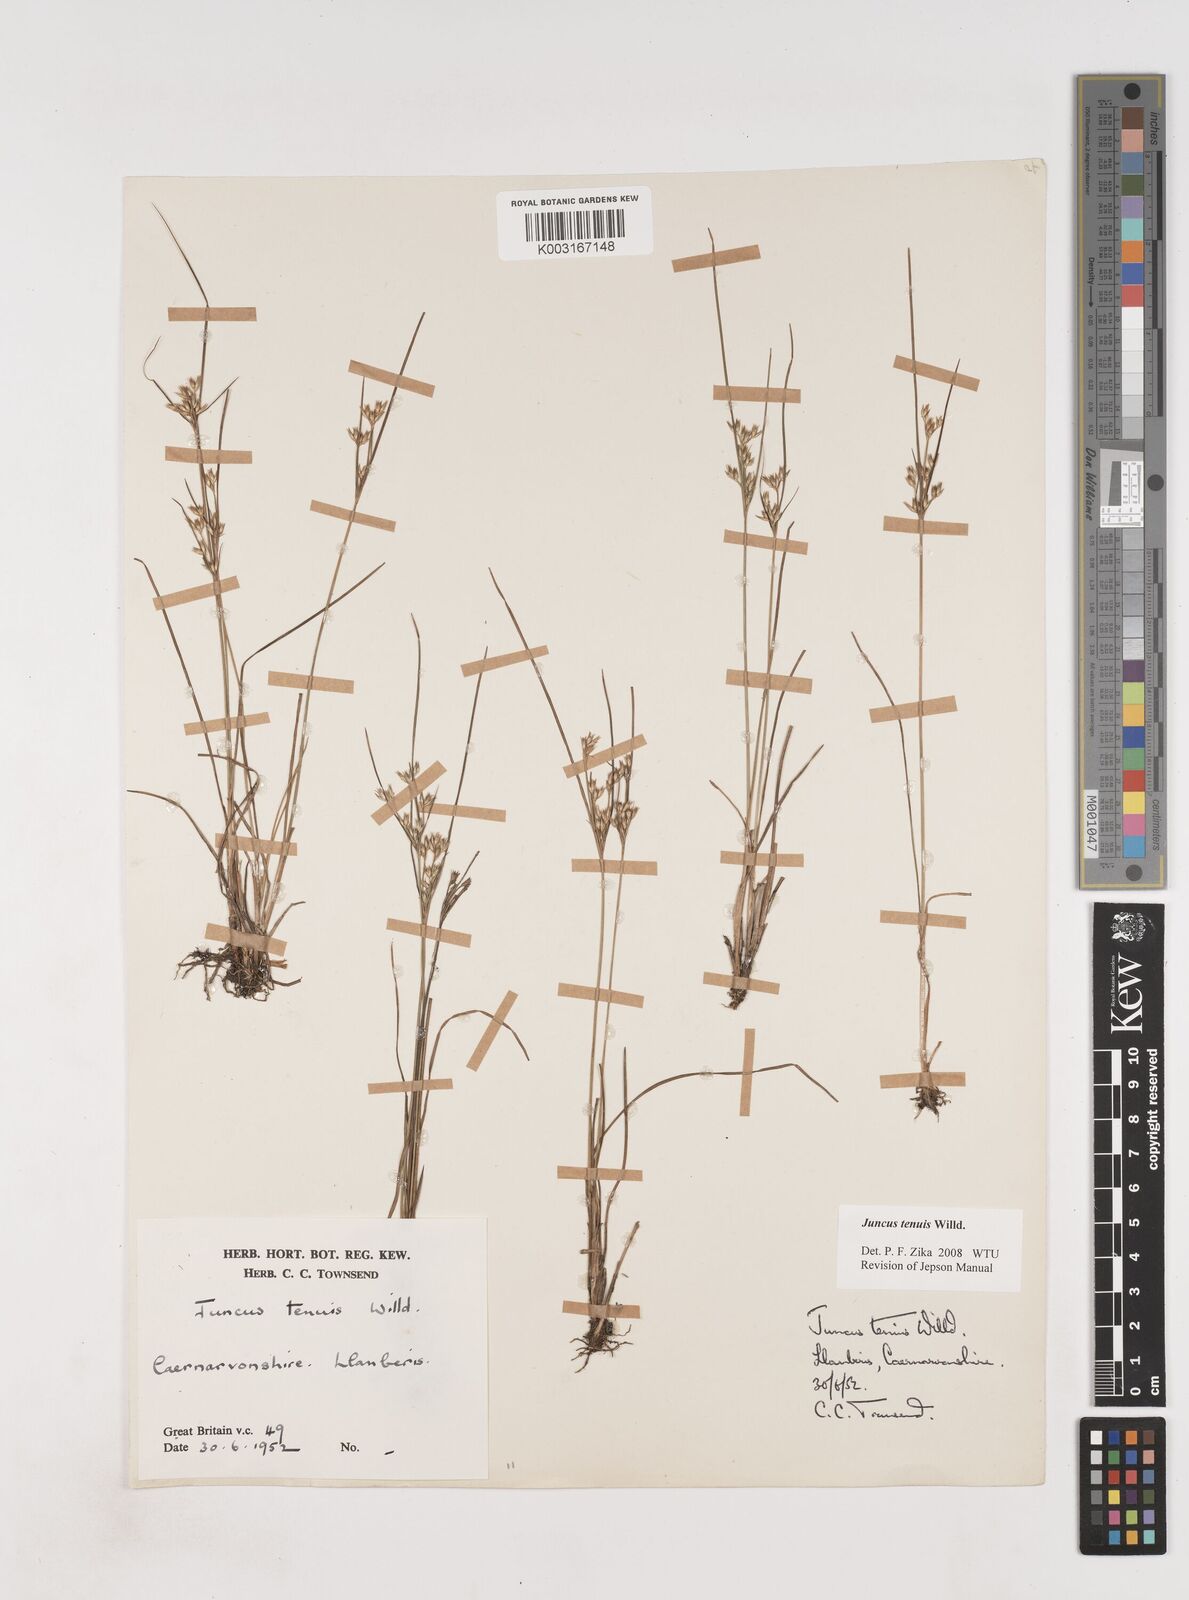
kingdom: Plantae
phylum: Tracheophyta
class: Liliopsida
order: Poales
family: Juncaceae
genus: Juncus
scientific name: Juncus tenuis
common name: Slender rush
